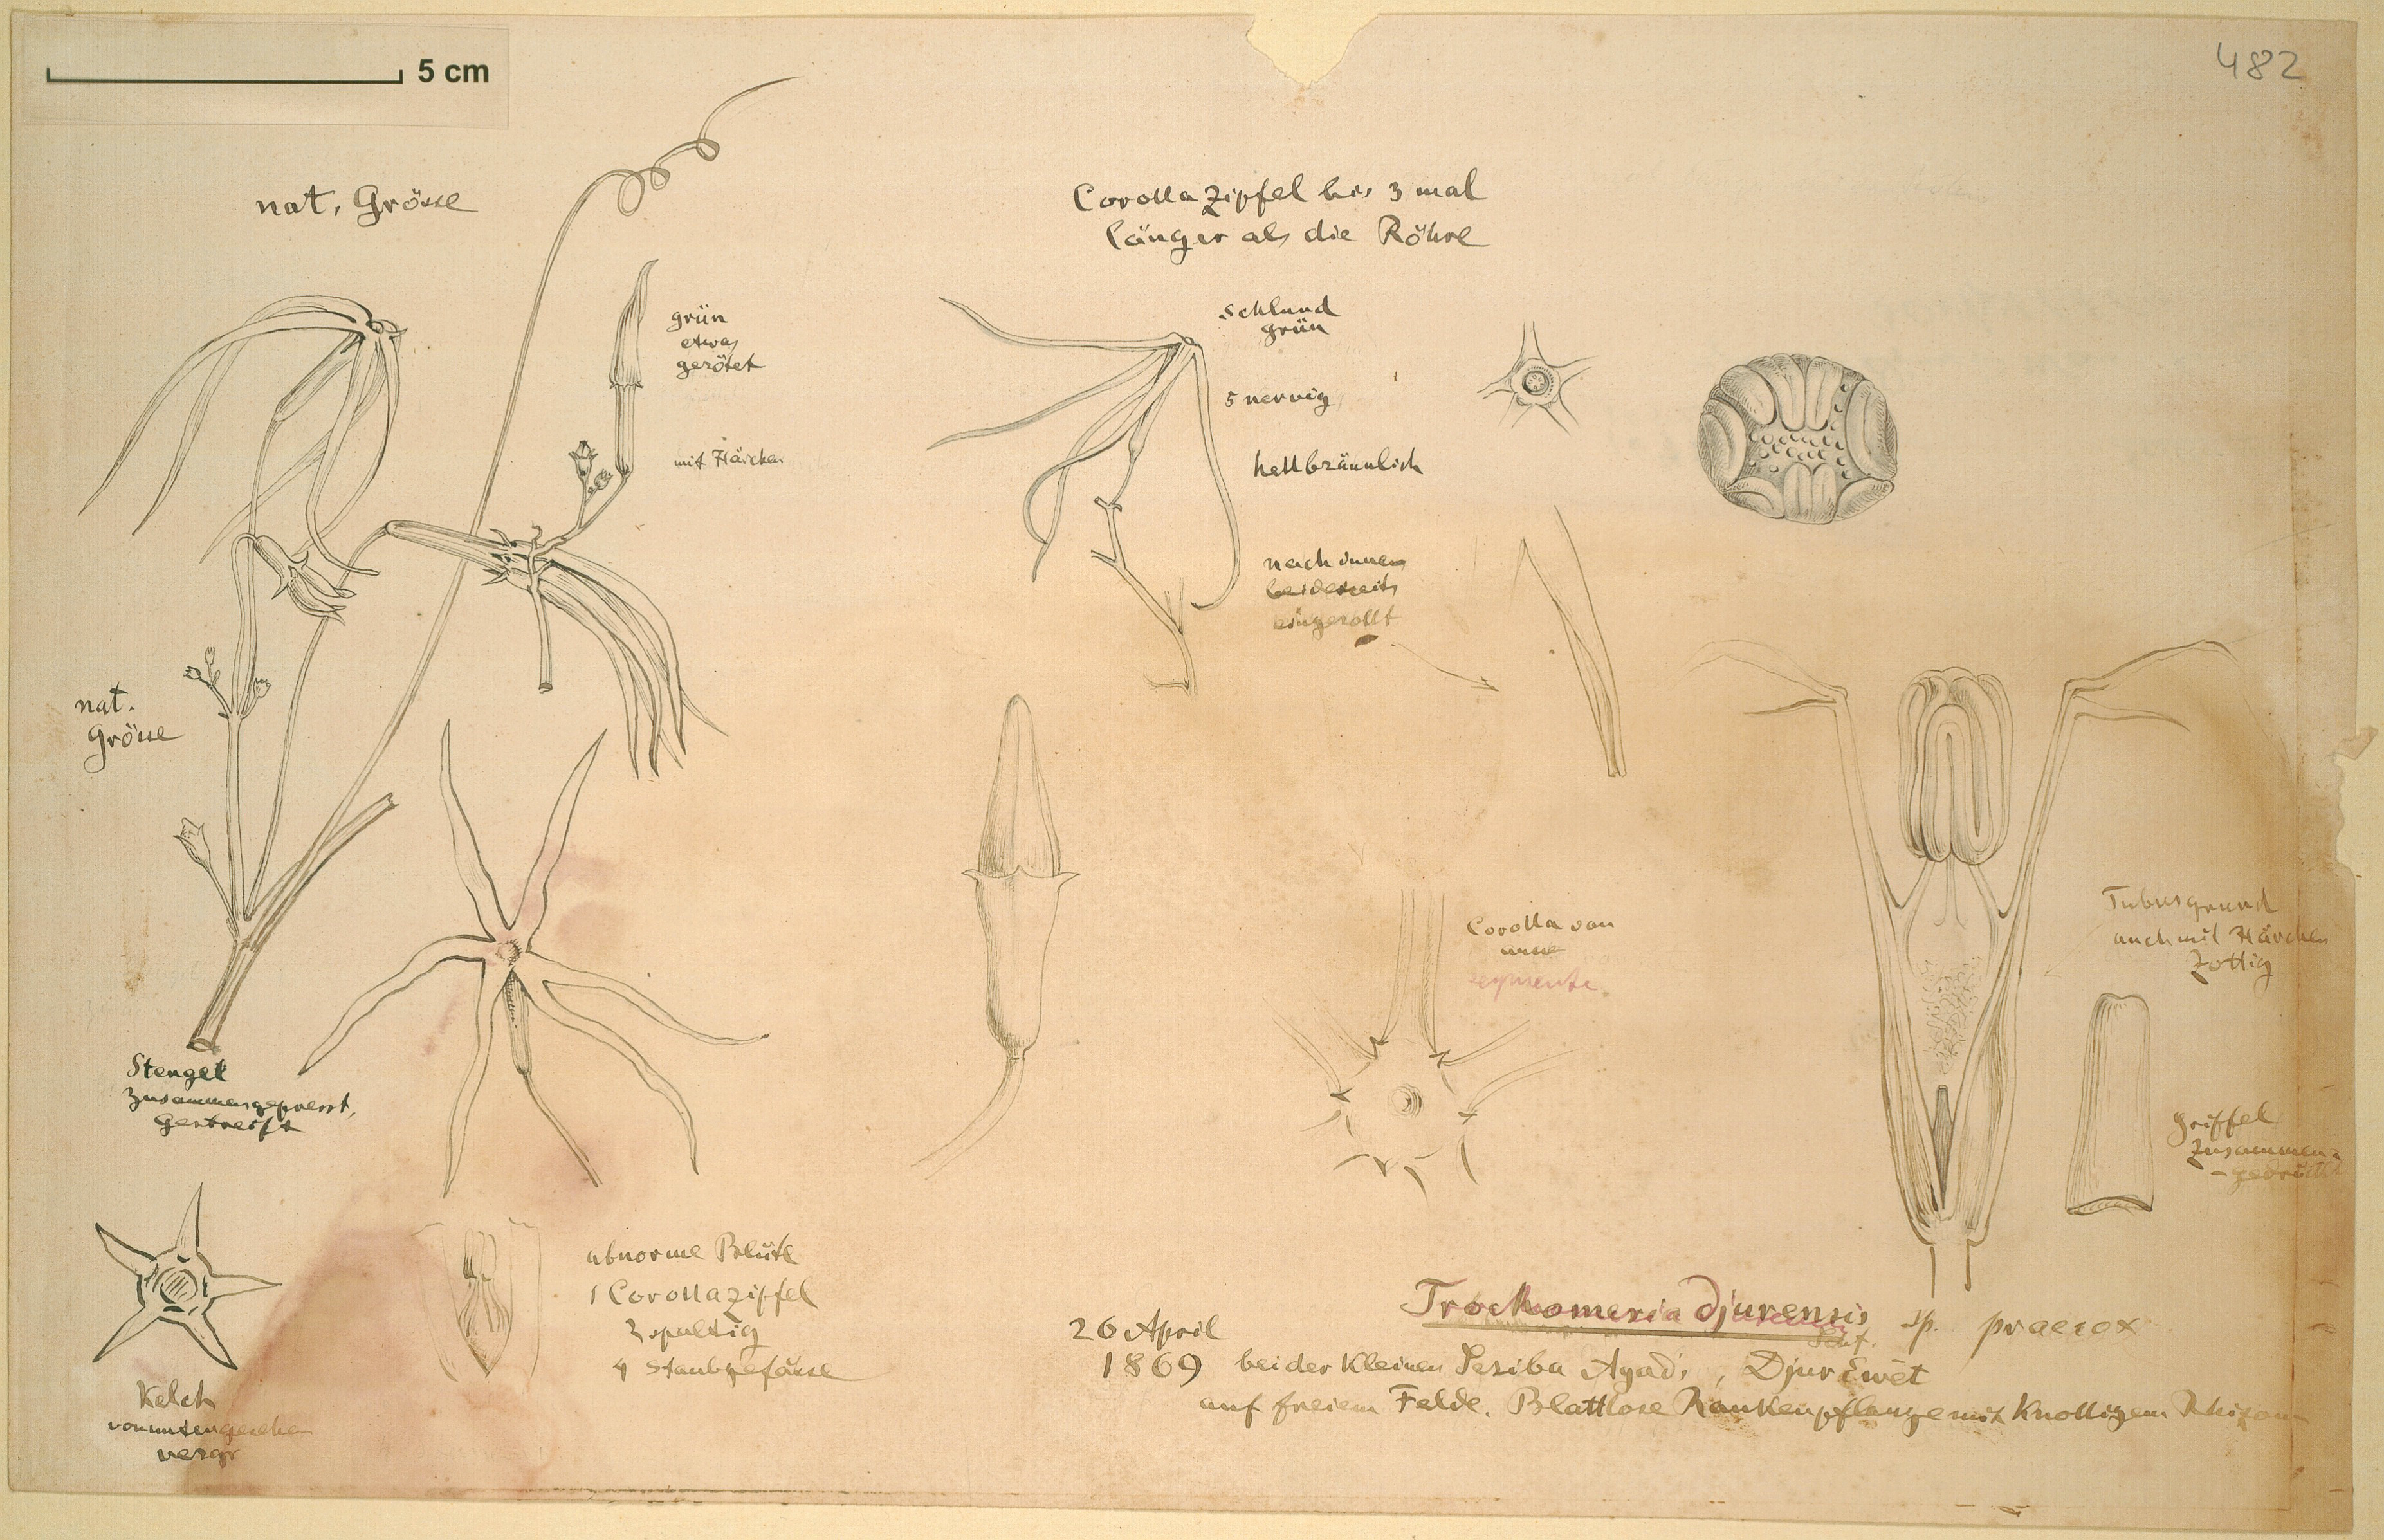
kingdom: Plantae
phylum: Tracheophyta
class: Magnoliopsida
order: Cucurbitales
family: Cucurbitaceae
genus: Trochomeria
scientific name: Trochomeria macrocarpa
